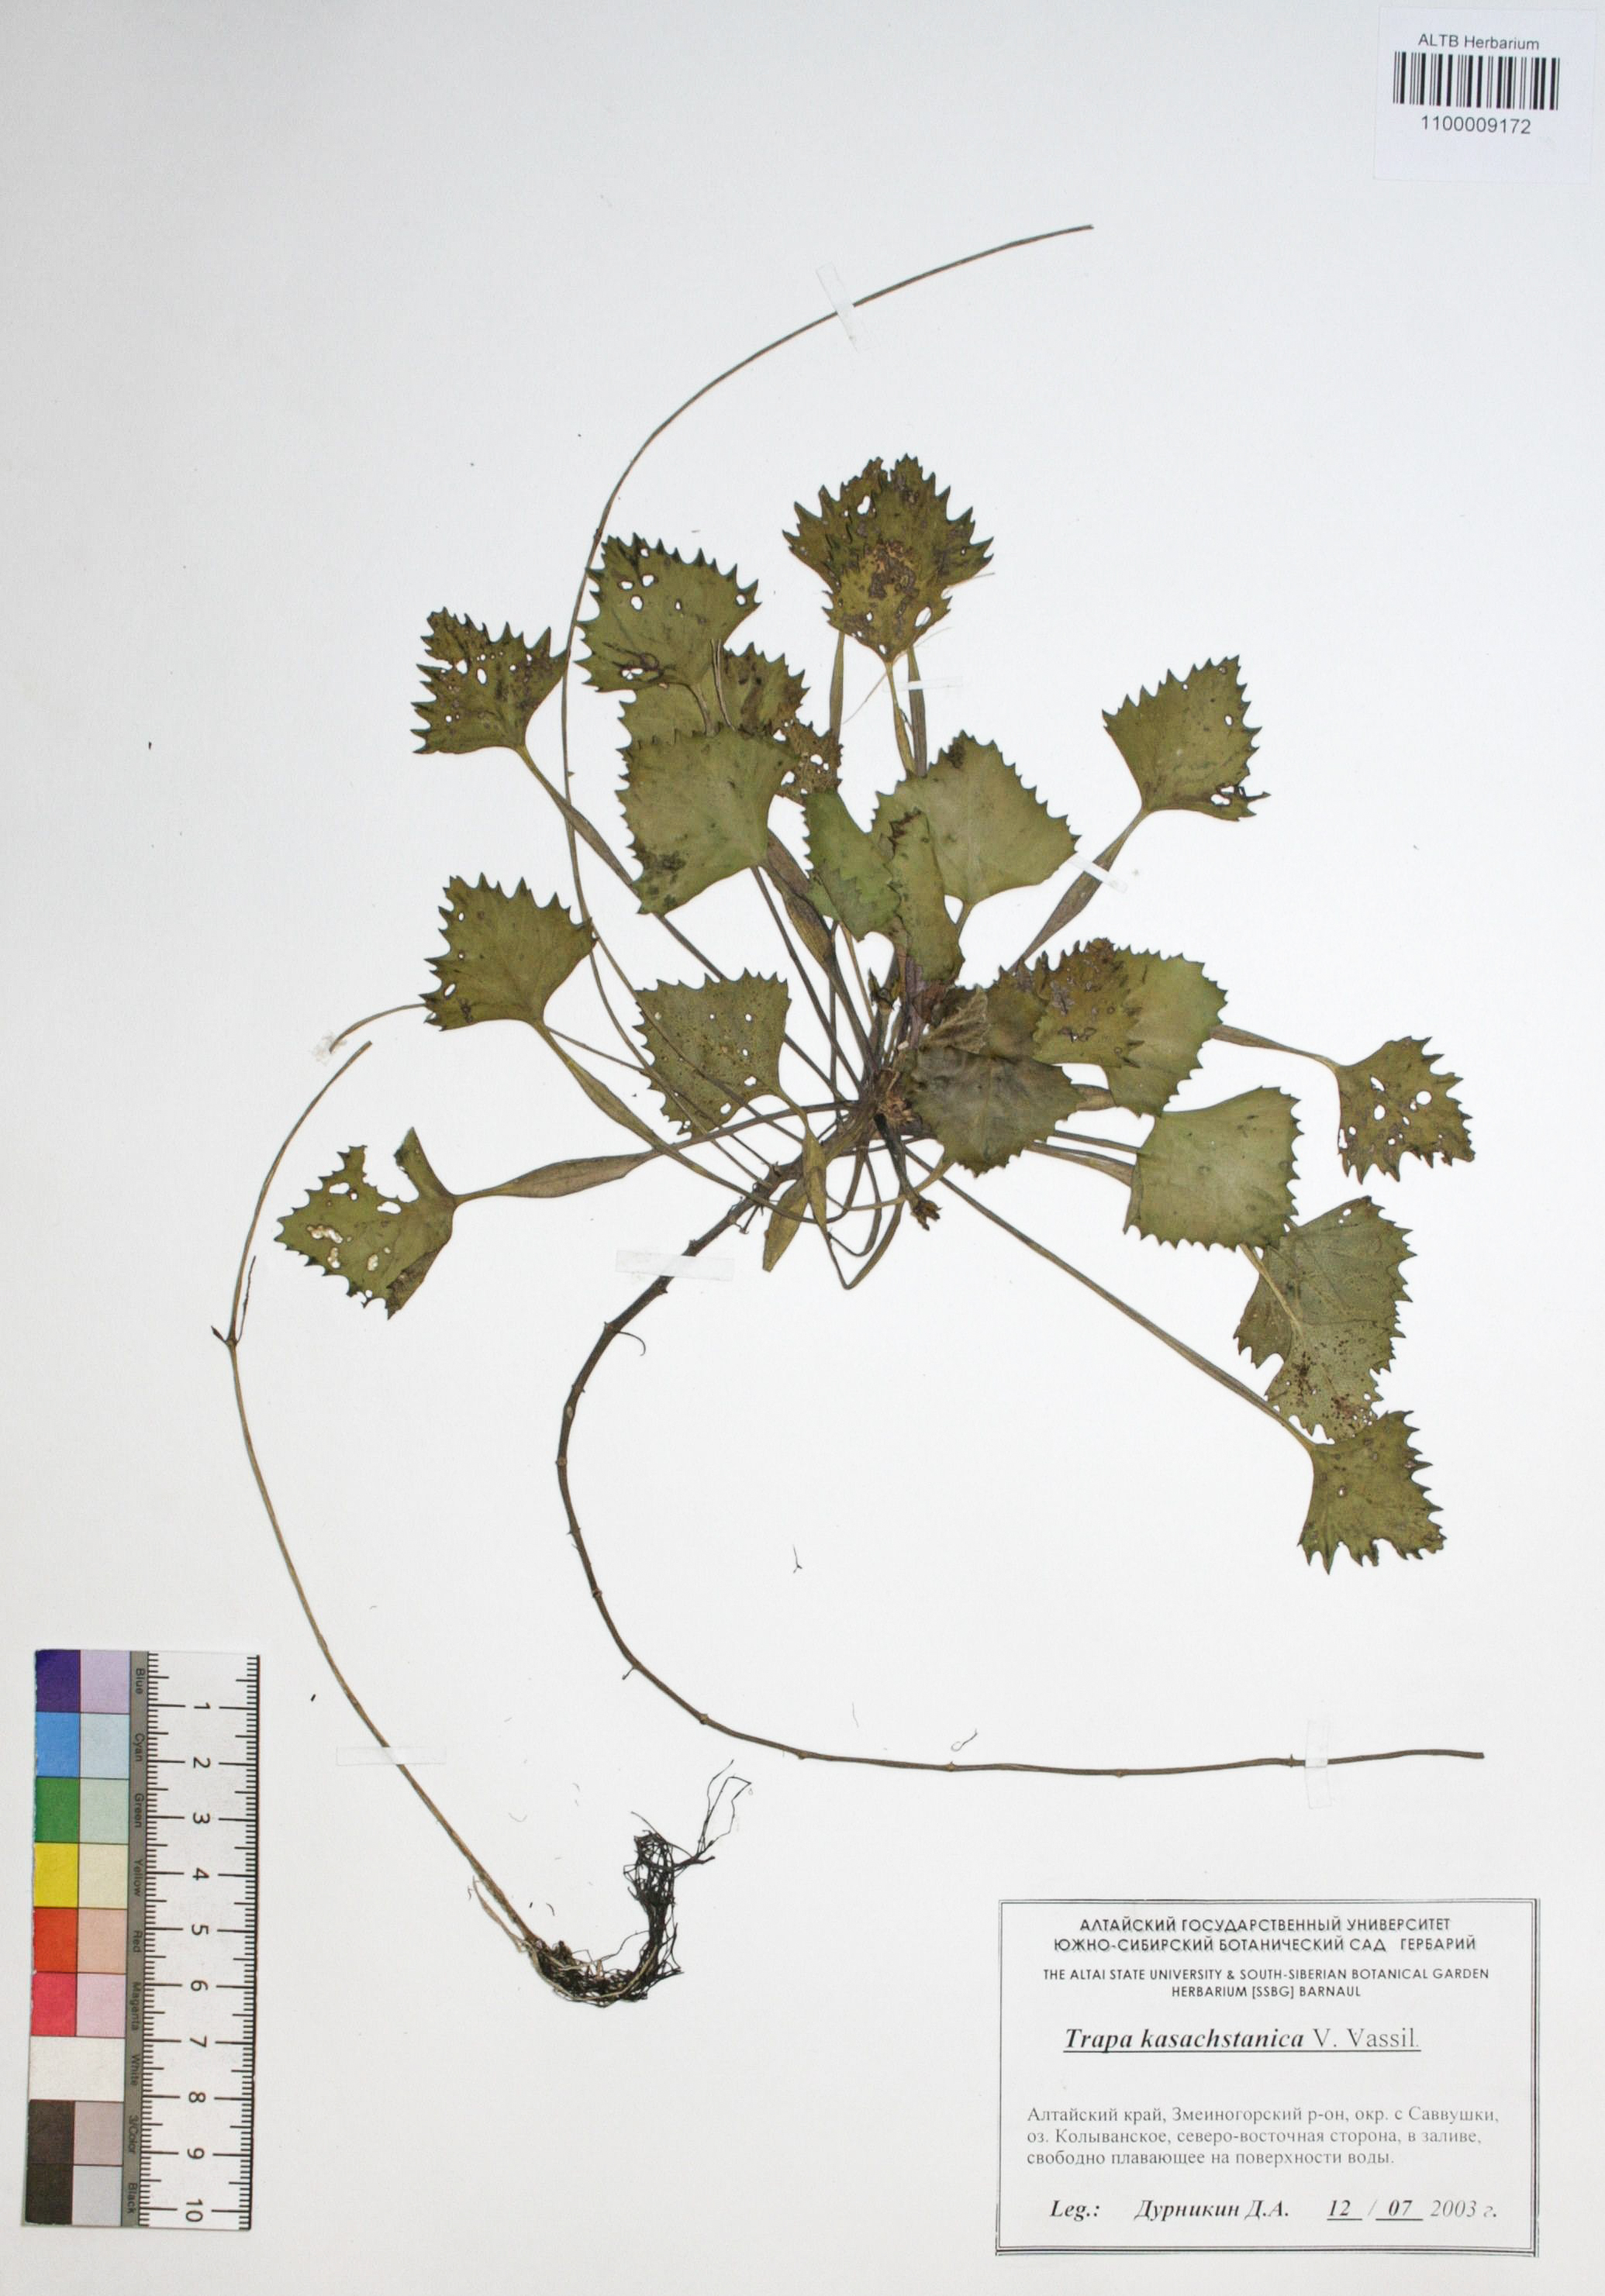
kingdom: Plantae
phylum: Tracheophyta
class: Magnoliopsida
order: Myrtales
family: Lythraceae
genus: Trapa
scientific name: Trapa natans
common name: Water chestnut
